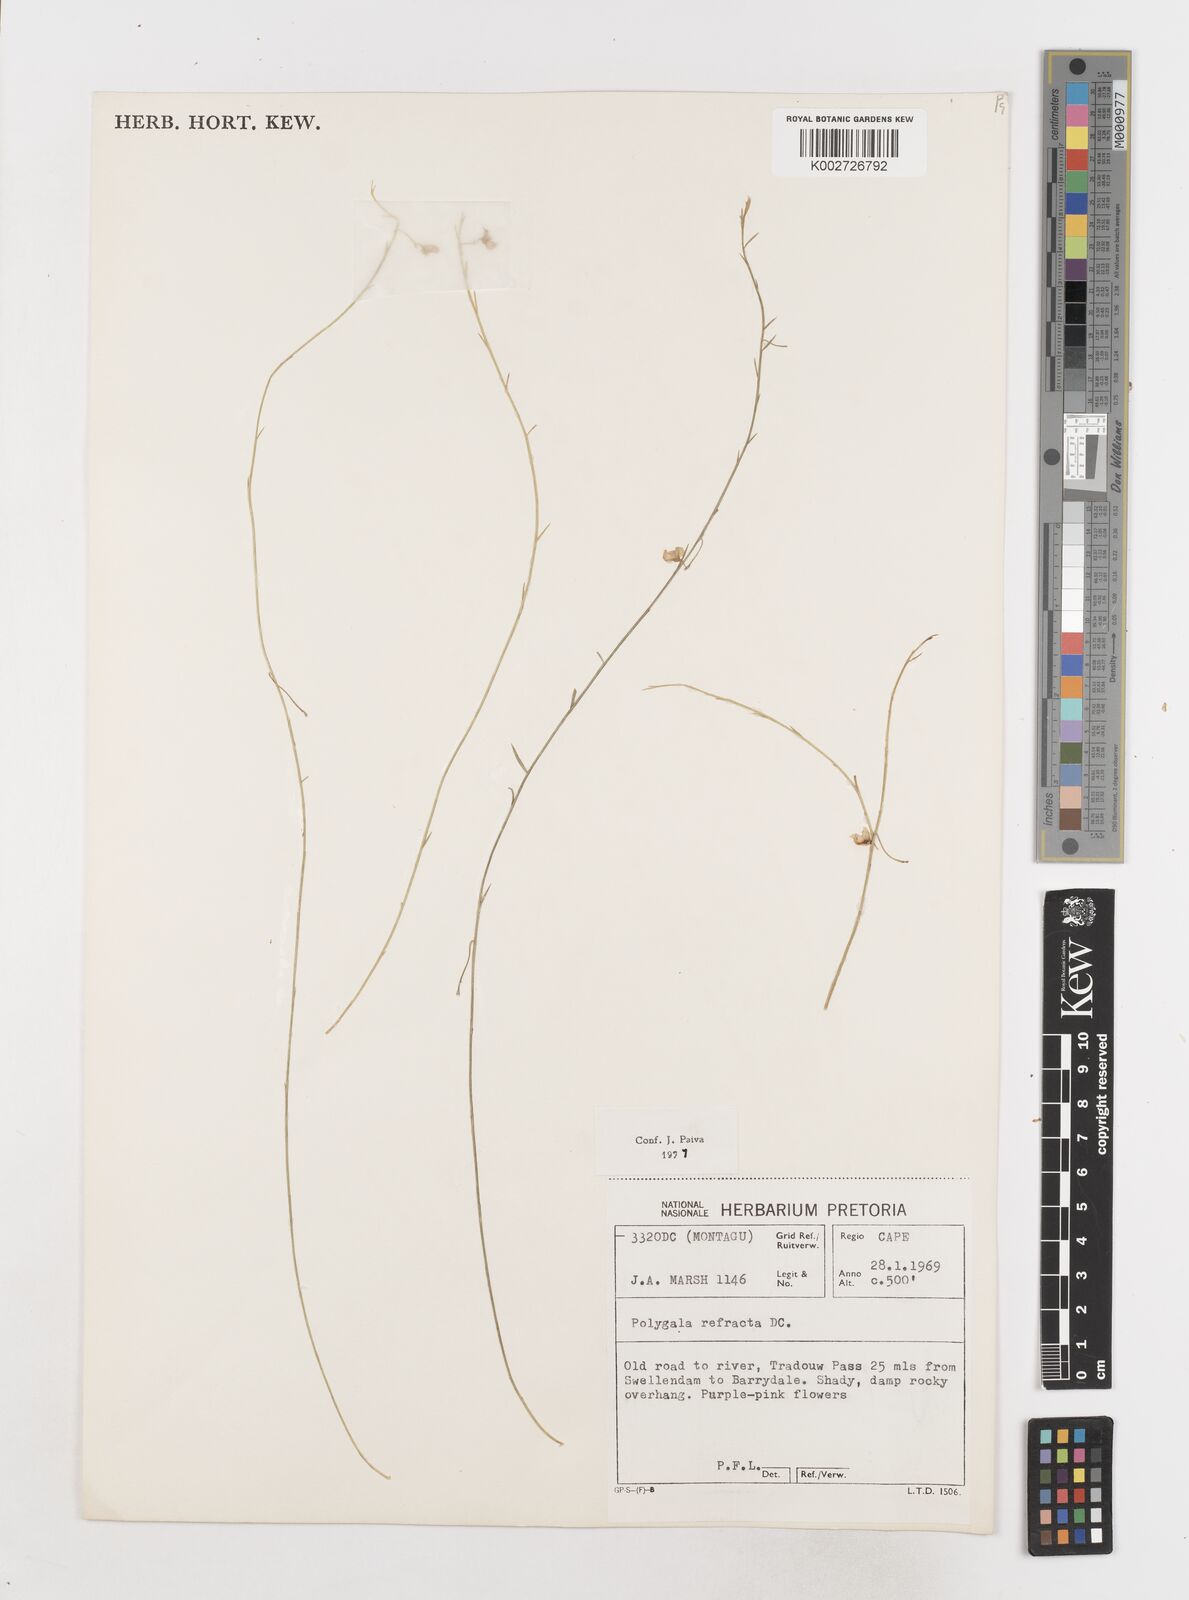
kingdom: Plantae
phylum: Tracheophyta
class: Magnoliopsida
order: Fabales
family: Polygalaceae
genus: Polygala
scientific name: Polygala refracta
